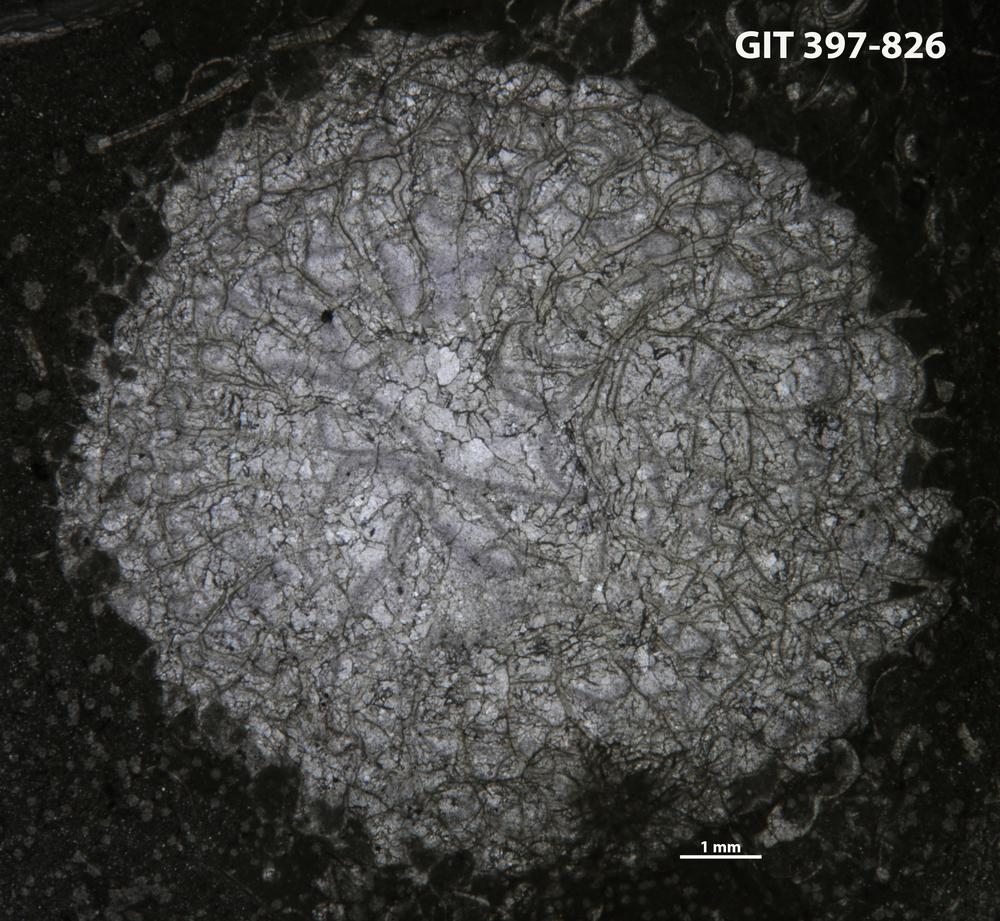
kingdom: Animalia
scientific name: Animalia
